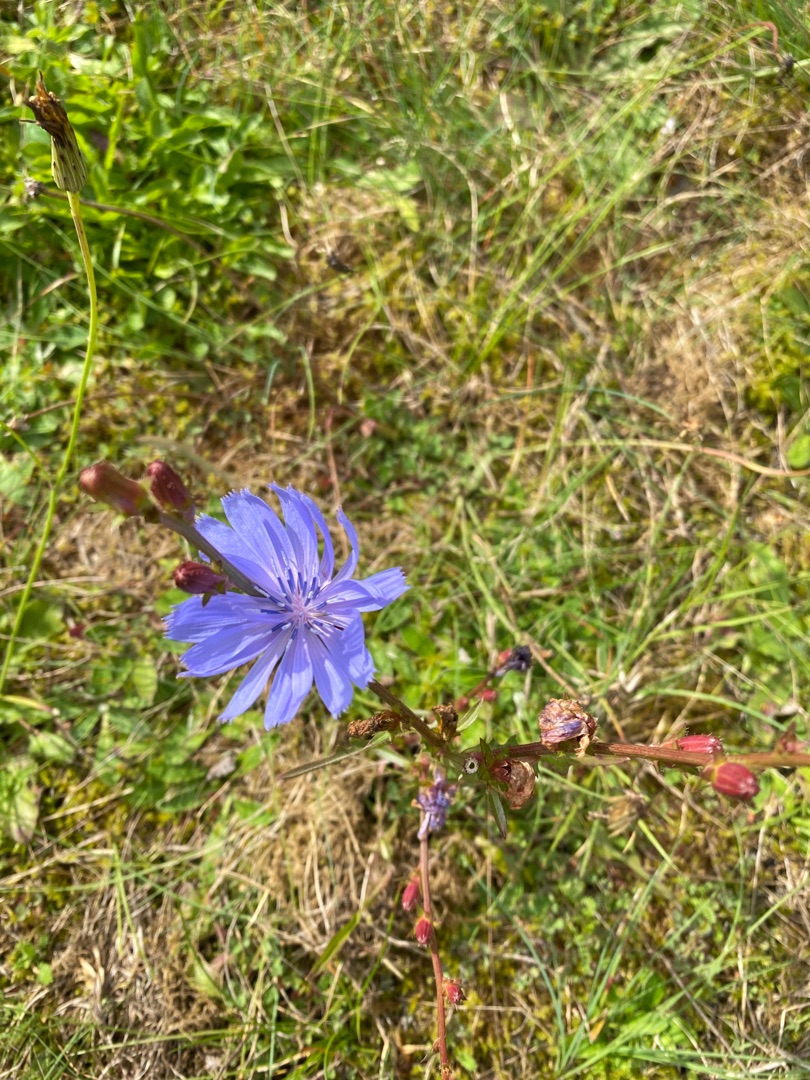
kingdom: Plantae
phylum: Tracheophyta
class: Magnoliopsida
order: Asterales
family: Asteraceae
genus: Cichorium
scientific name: Cichorium intybus
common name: Cikorie
